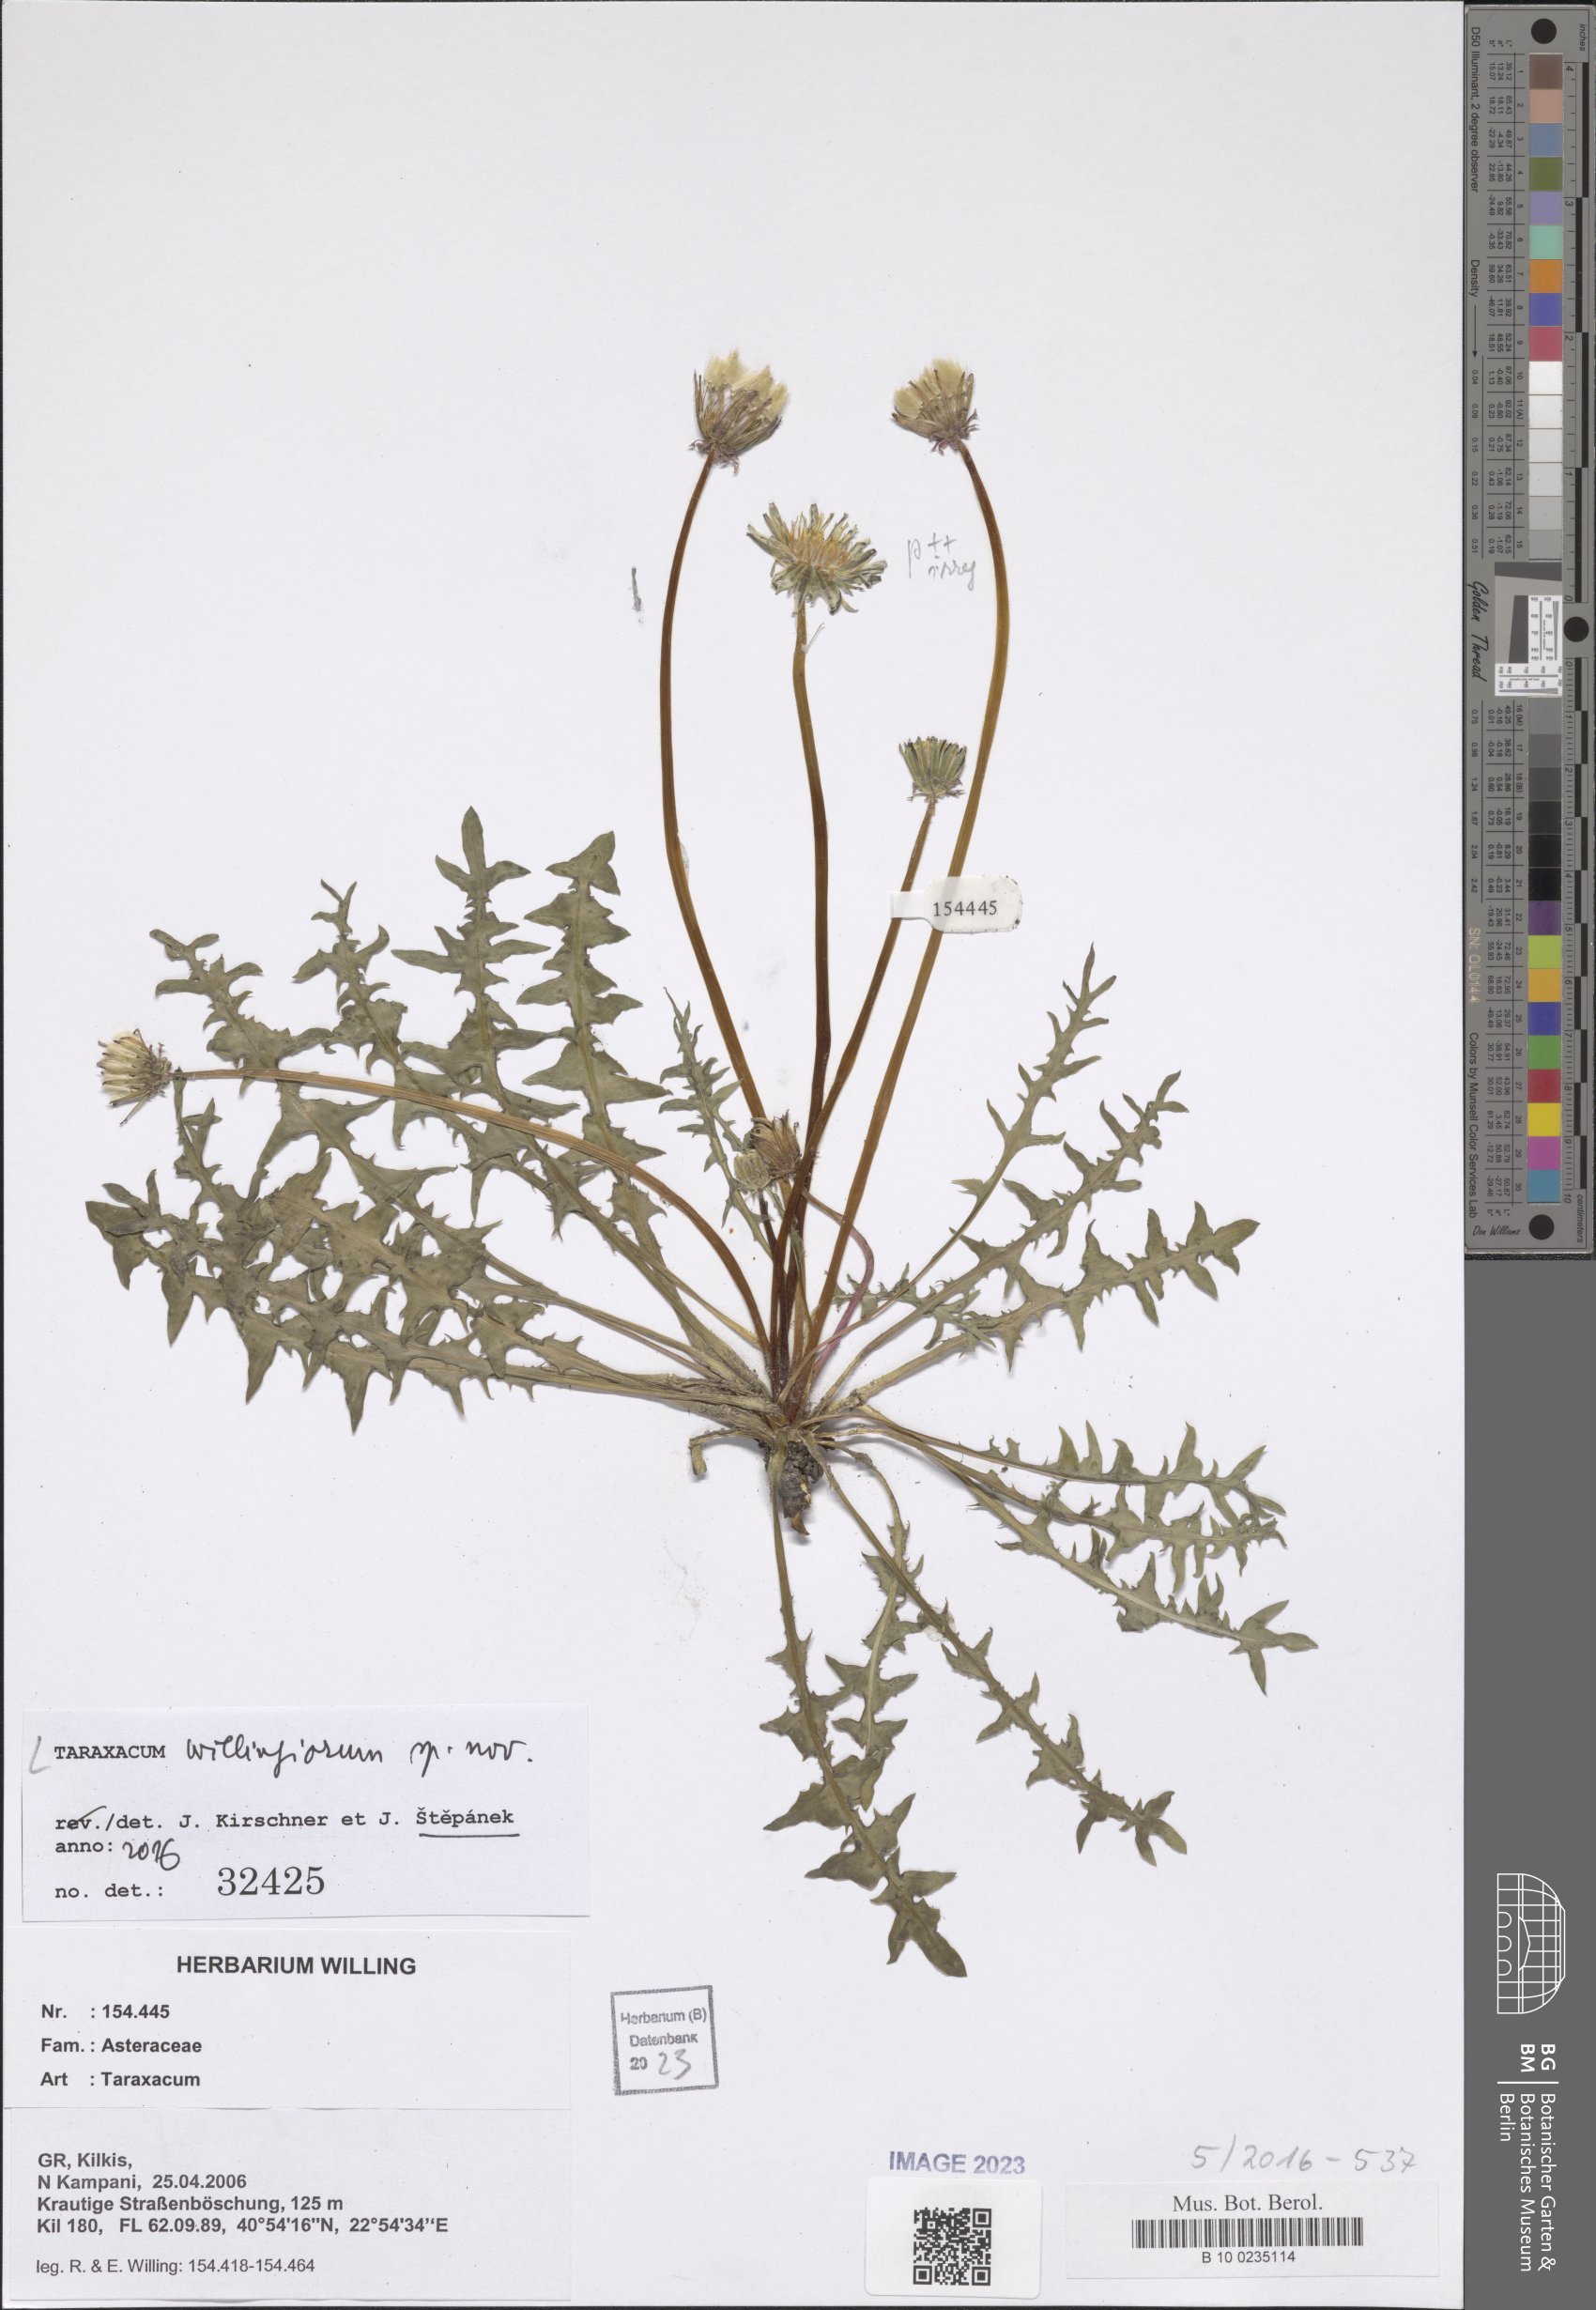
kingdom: Plantae
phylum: Tracheophyta
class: Magnoliopsida
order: Asterales
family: Asteraceae
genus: Taraxacum
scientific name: Taraxacum
